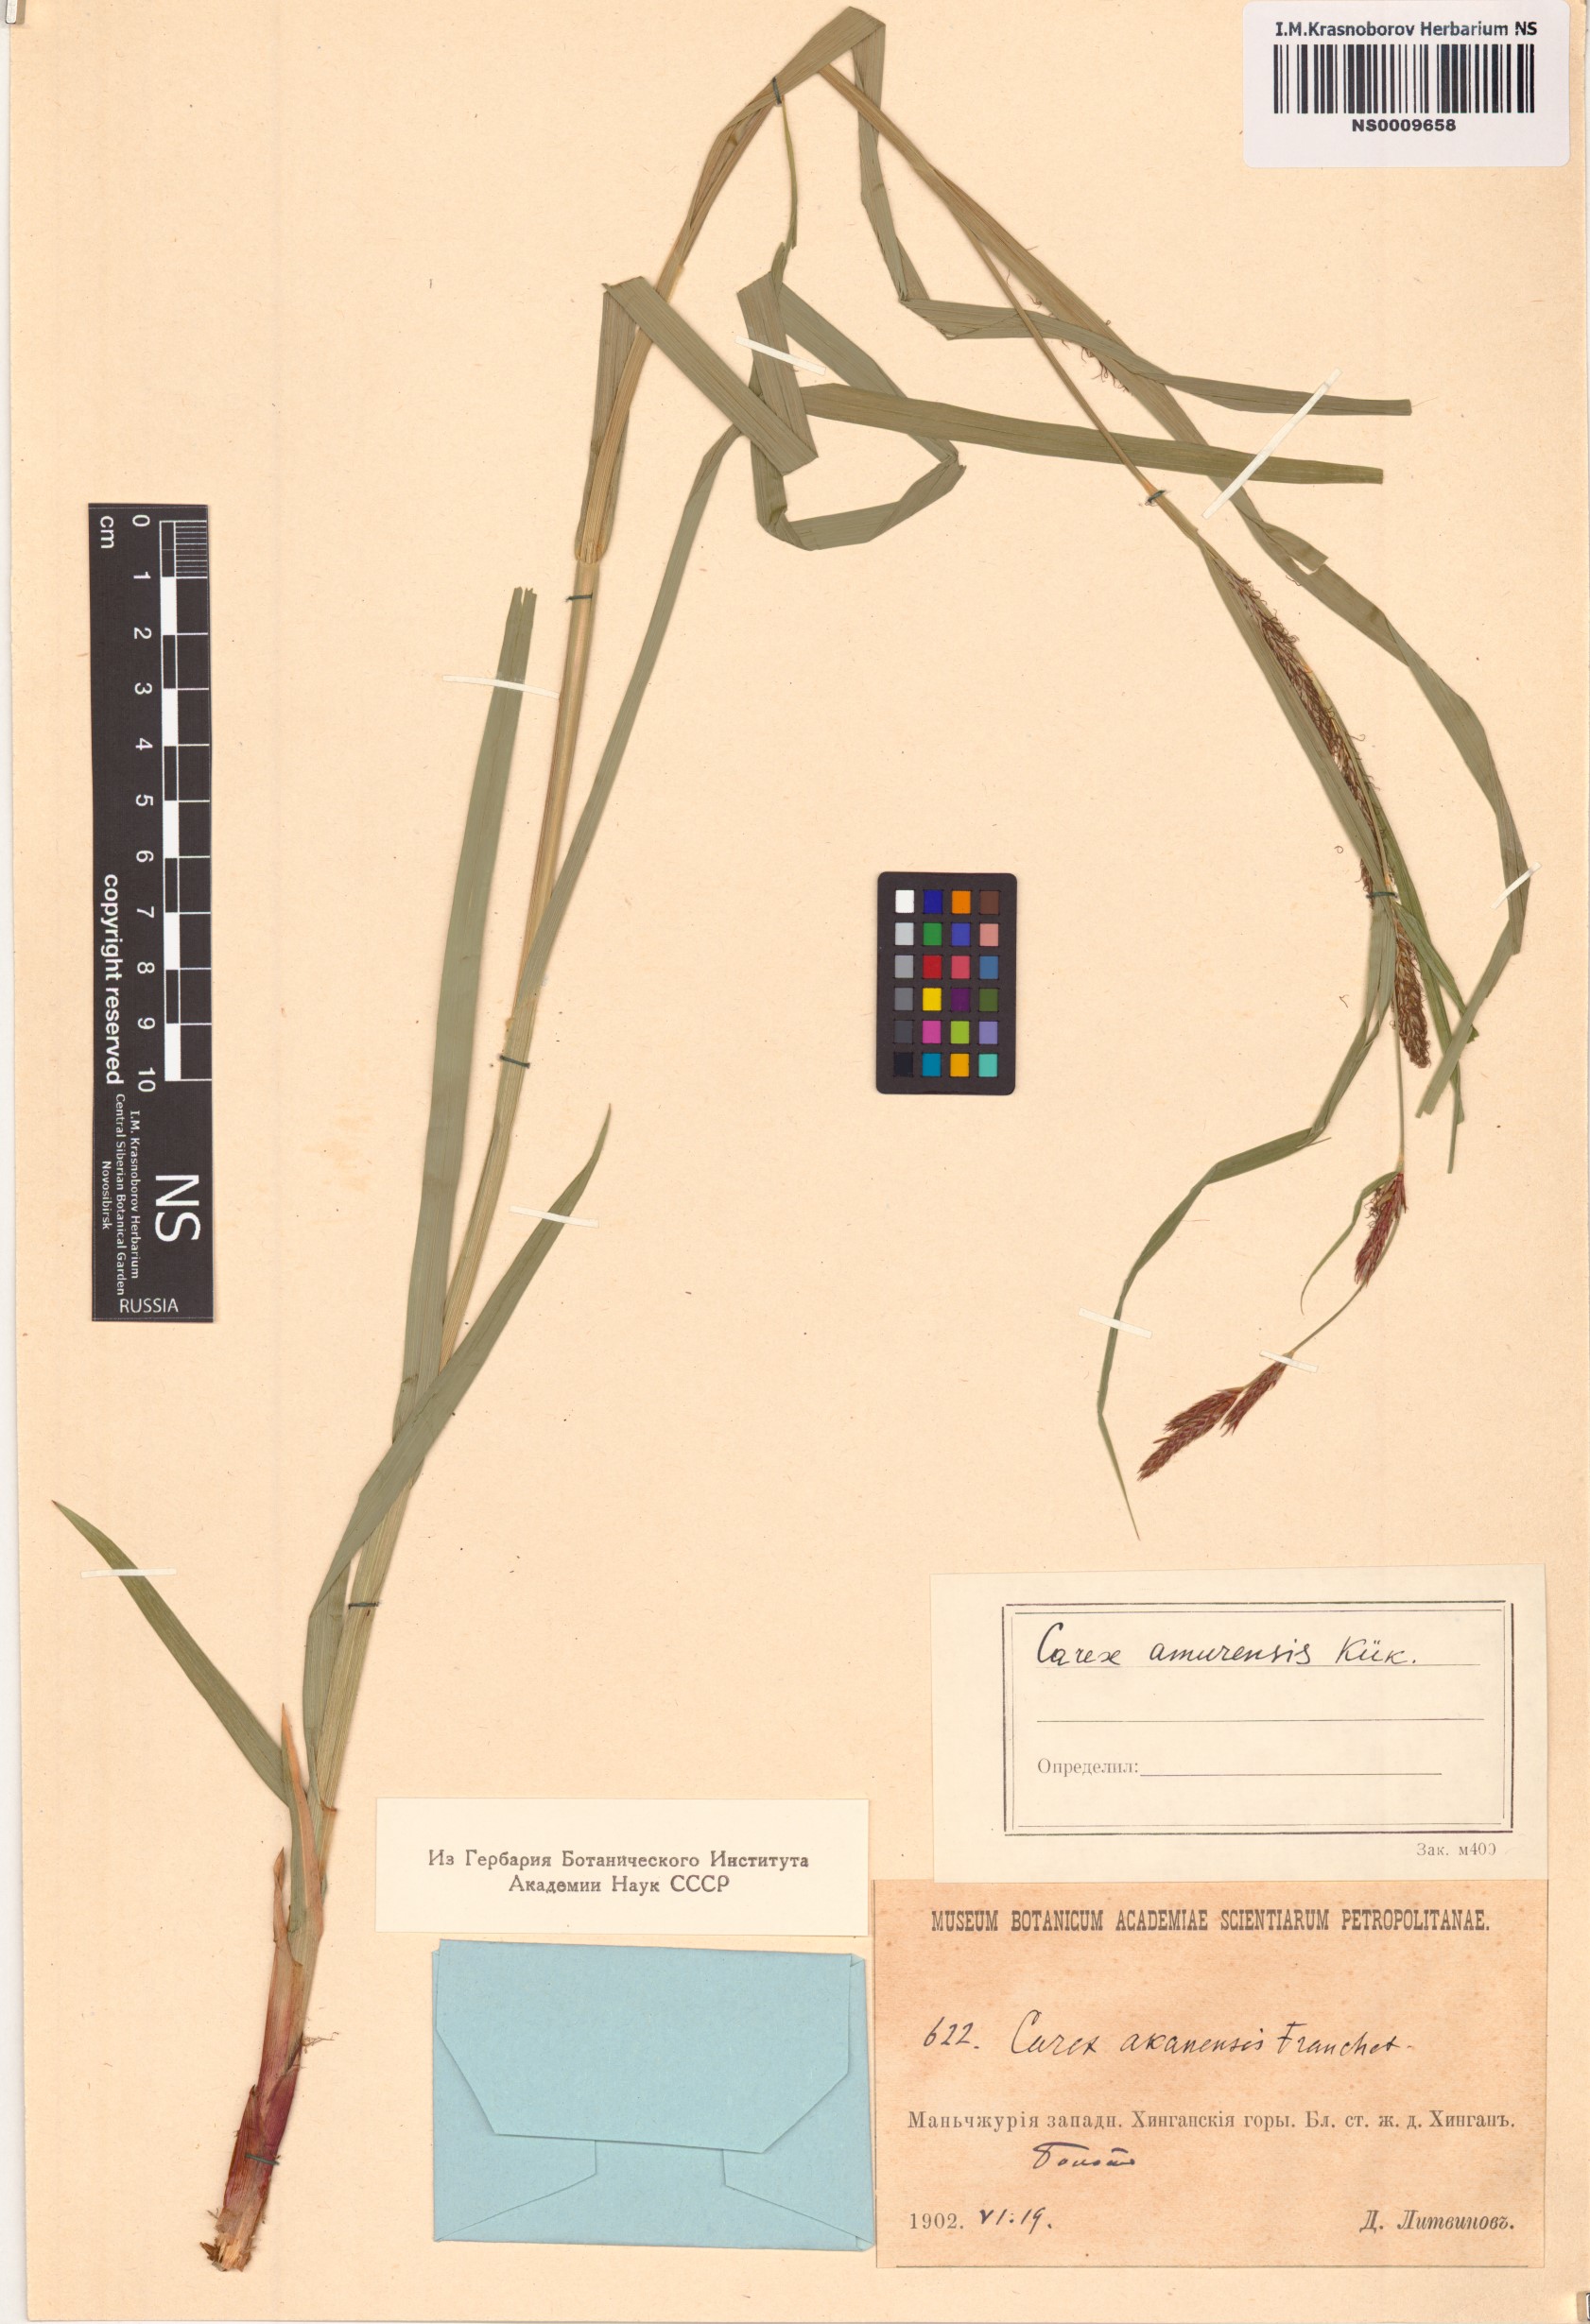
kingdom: Plantae
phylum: Tracheophyta
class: Liliopsida
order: Poales
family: Cyperaceae
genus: Carex
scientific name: Carex sordida
